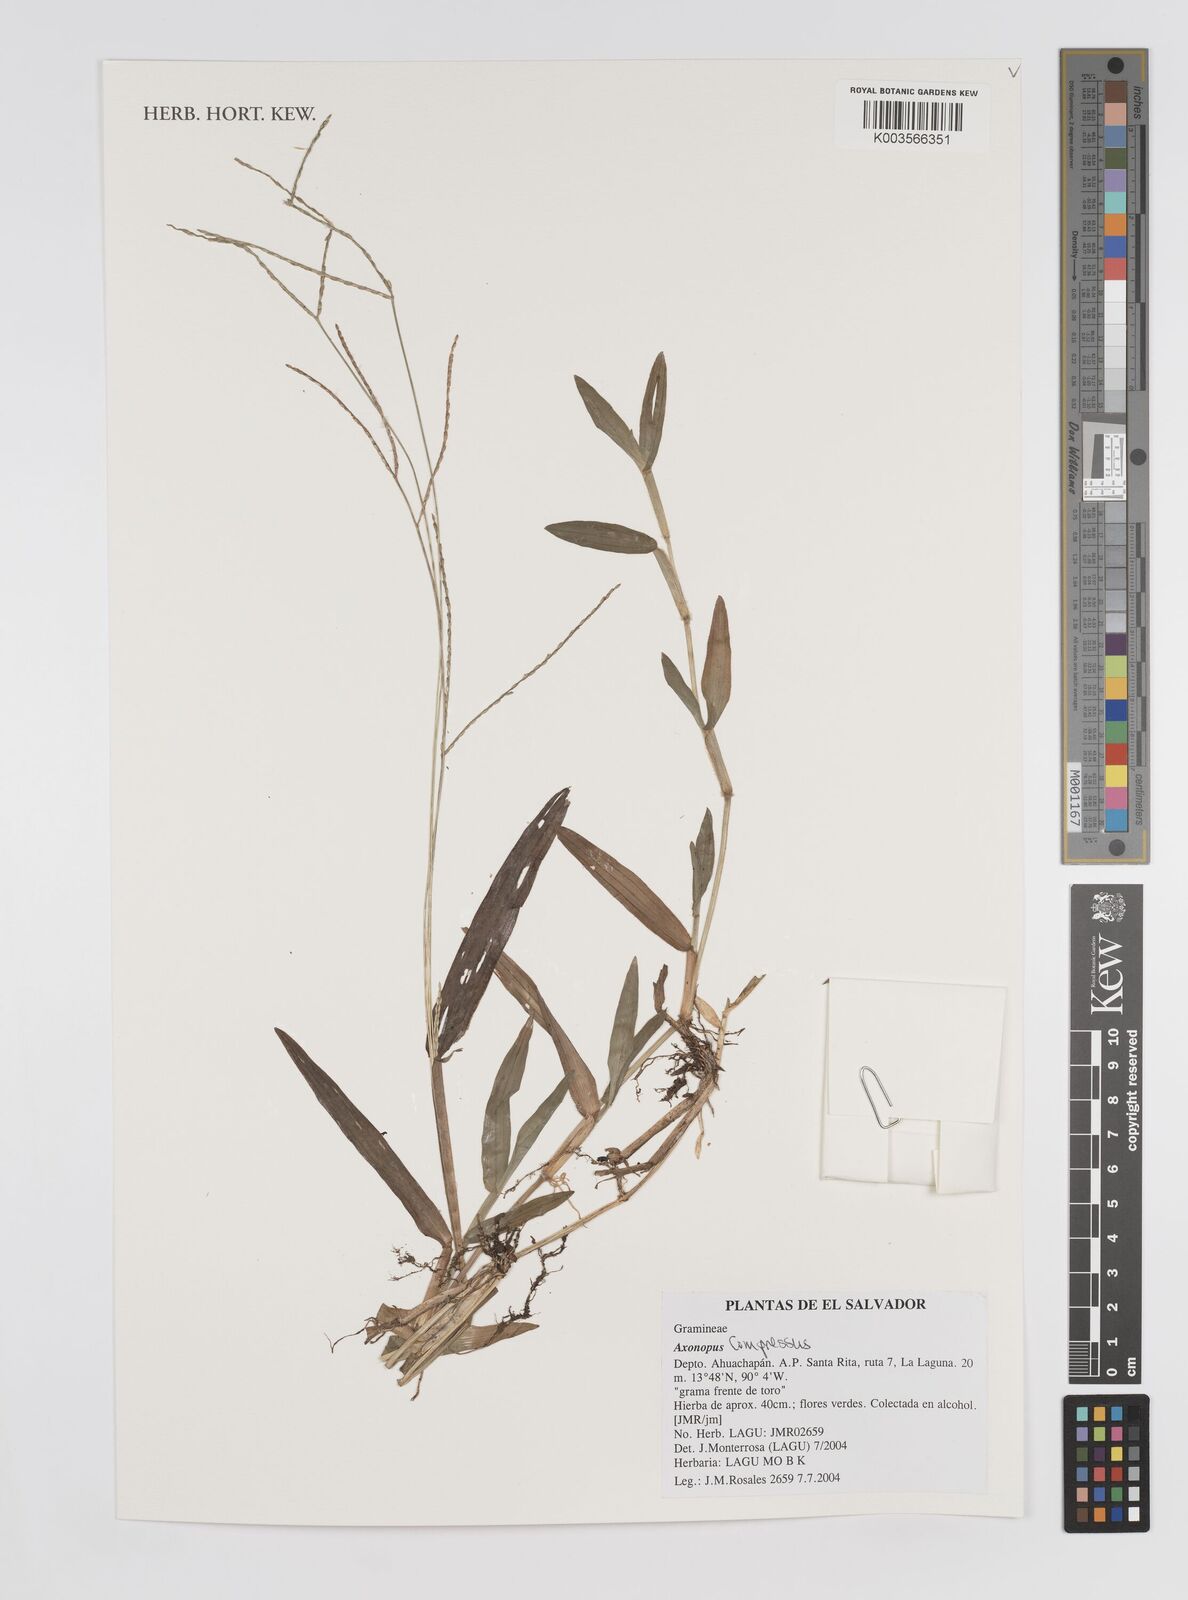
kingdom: Plantae
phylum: Tracheophyta
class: Liliopsida
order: Poales
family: Poaceae
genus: Axonopus
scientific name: Axonopus compressus
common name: American carpet grass
